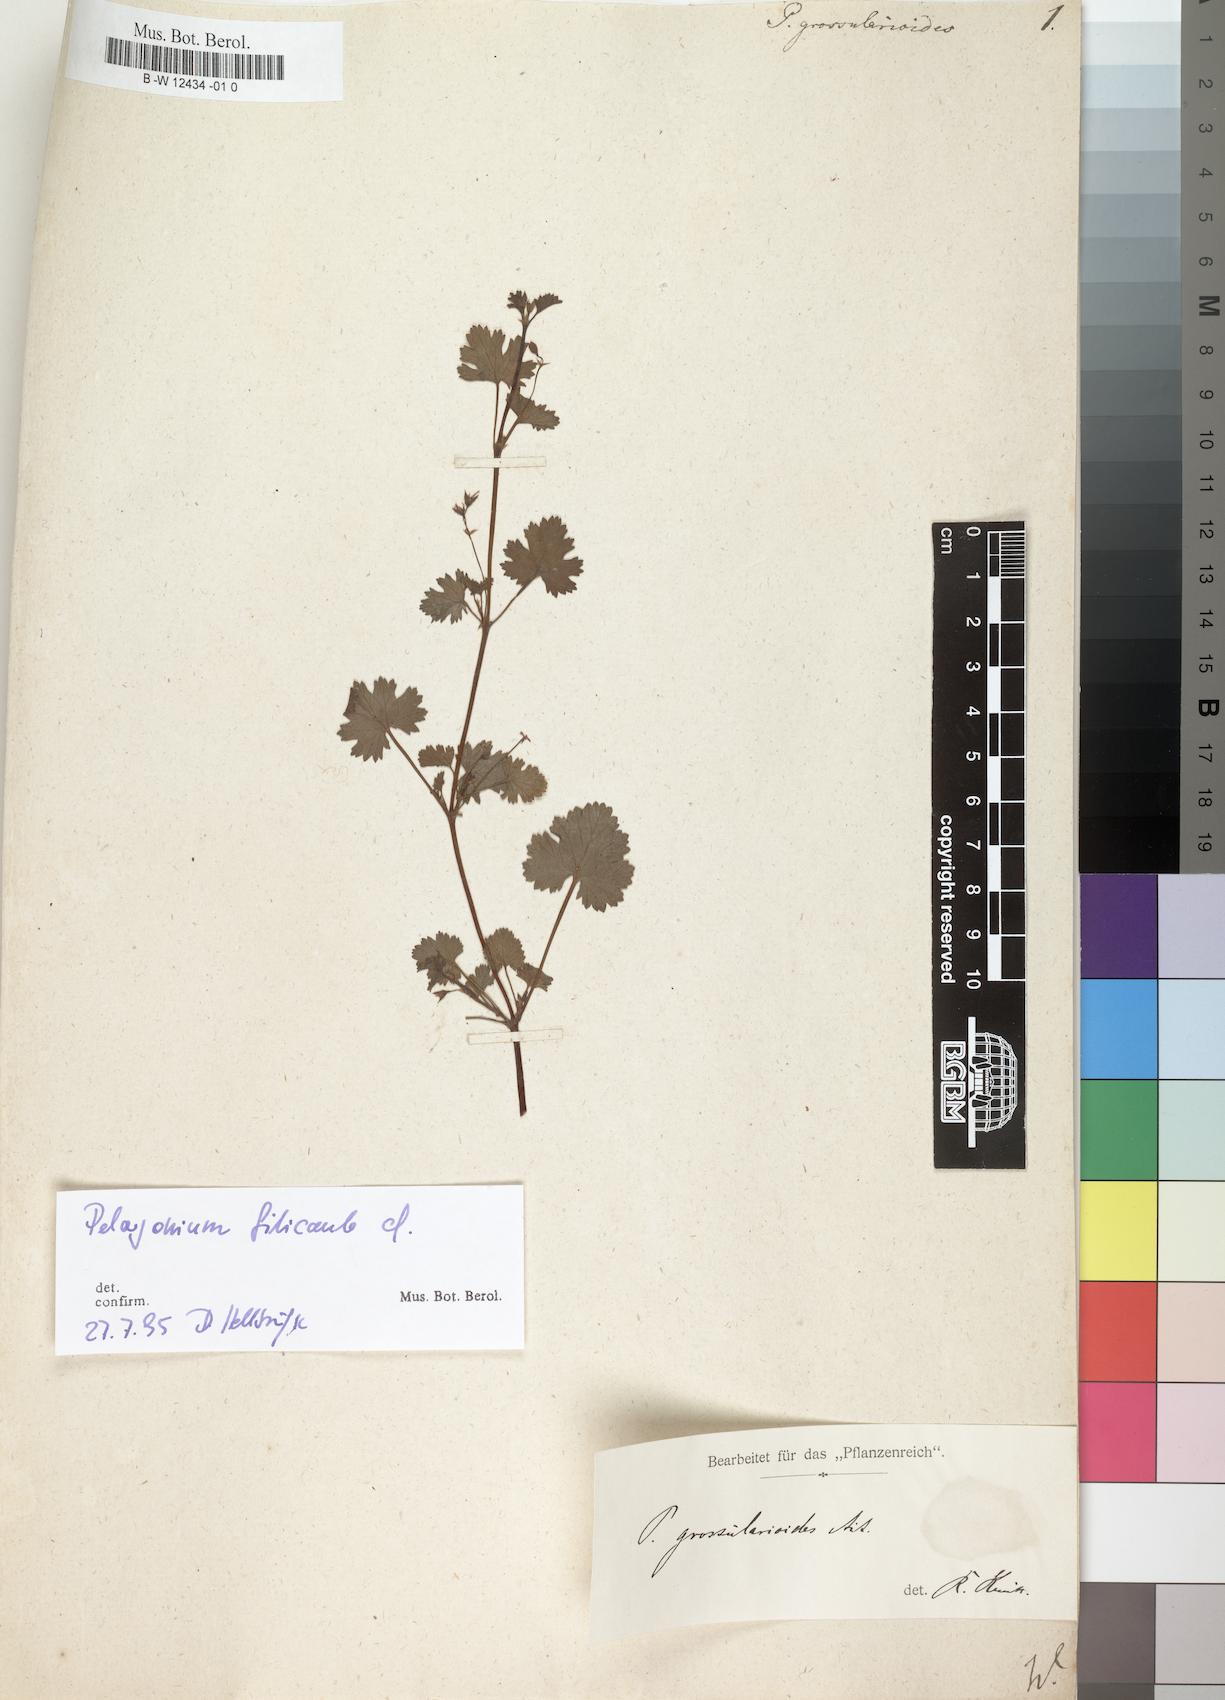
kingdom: Plantae
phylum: Tracheophyta
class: Magnoliopsida
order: Geraniales
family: Geraniaceae
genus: Pelargonium
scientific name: Pelargonium grossularioides
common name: Gooseberry geranium
